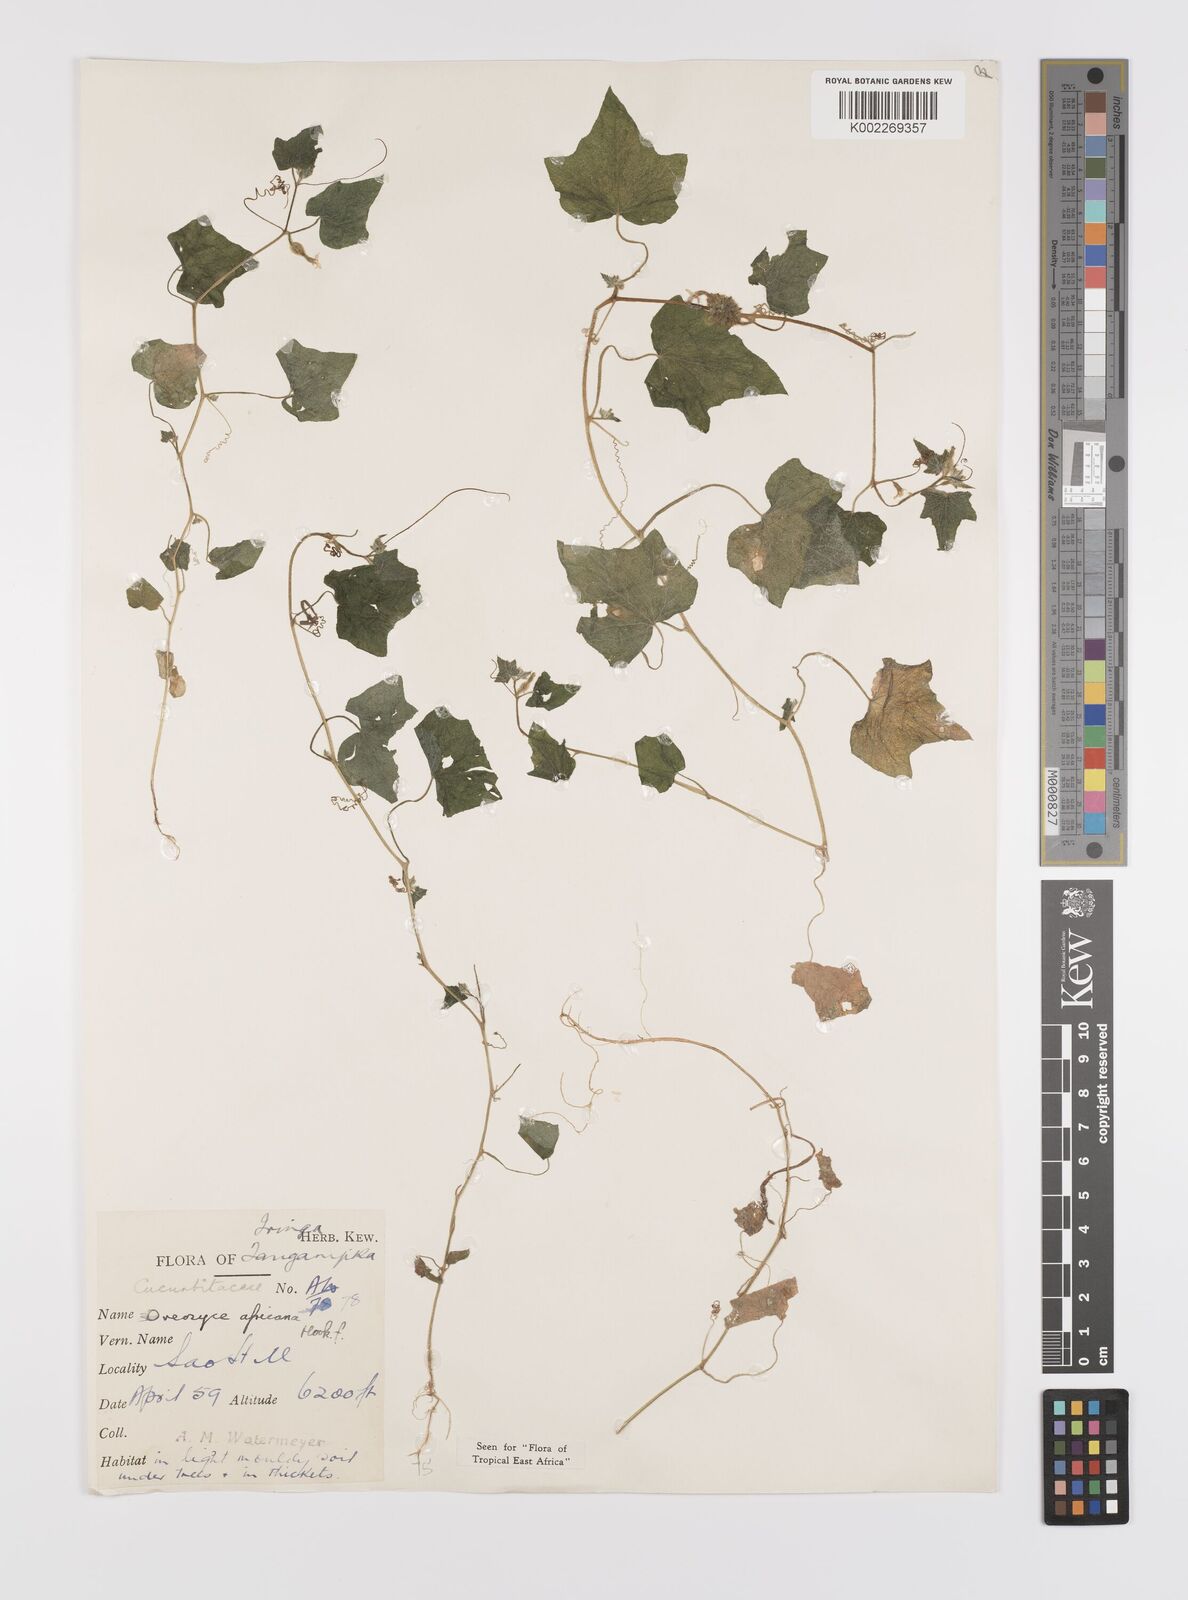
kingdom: Plantae
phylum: Tracheophyta
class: Magnoliopsida
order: Cucurbitales
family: Cucurbitaceae
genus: Cucumis
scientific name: Cucumis oreosyce
